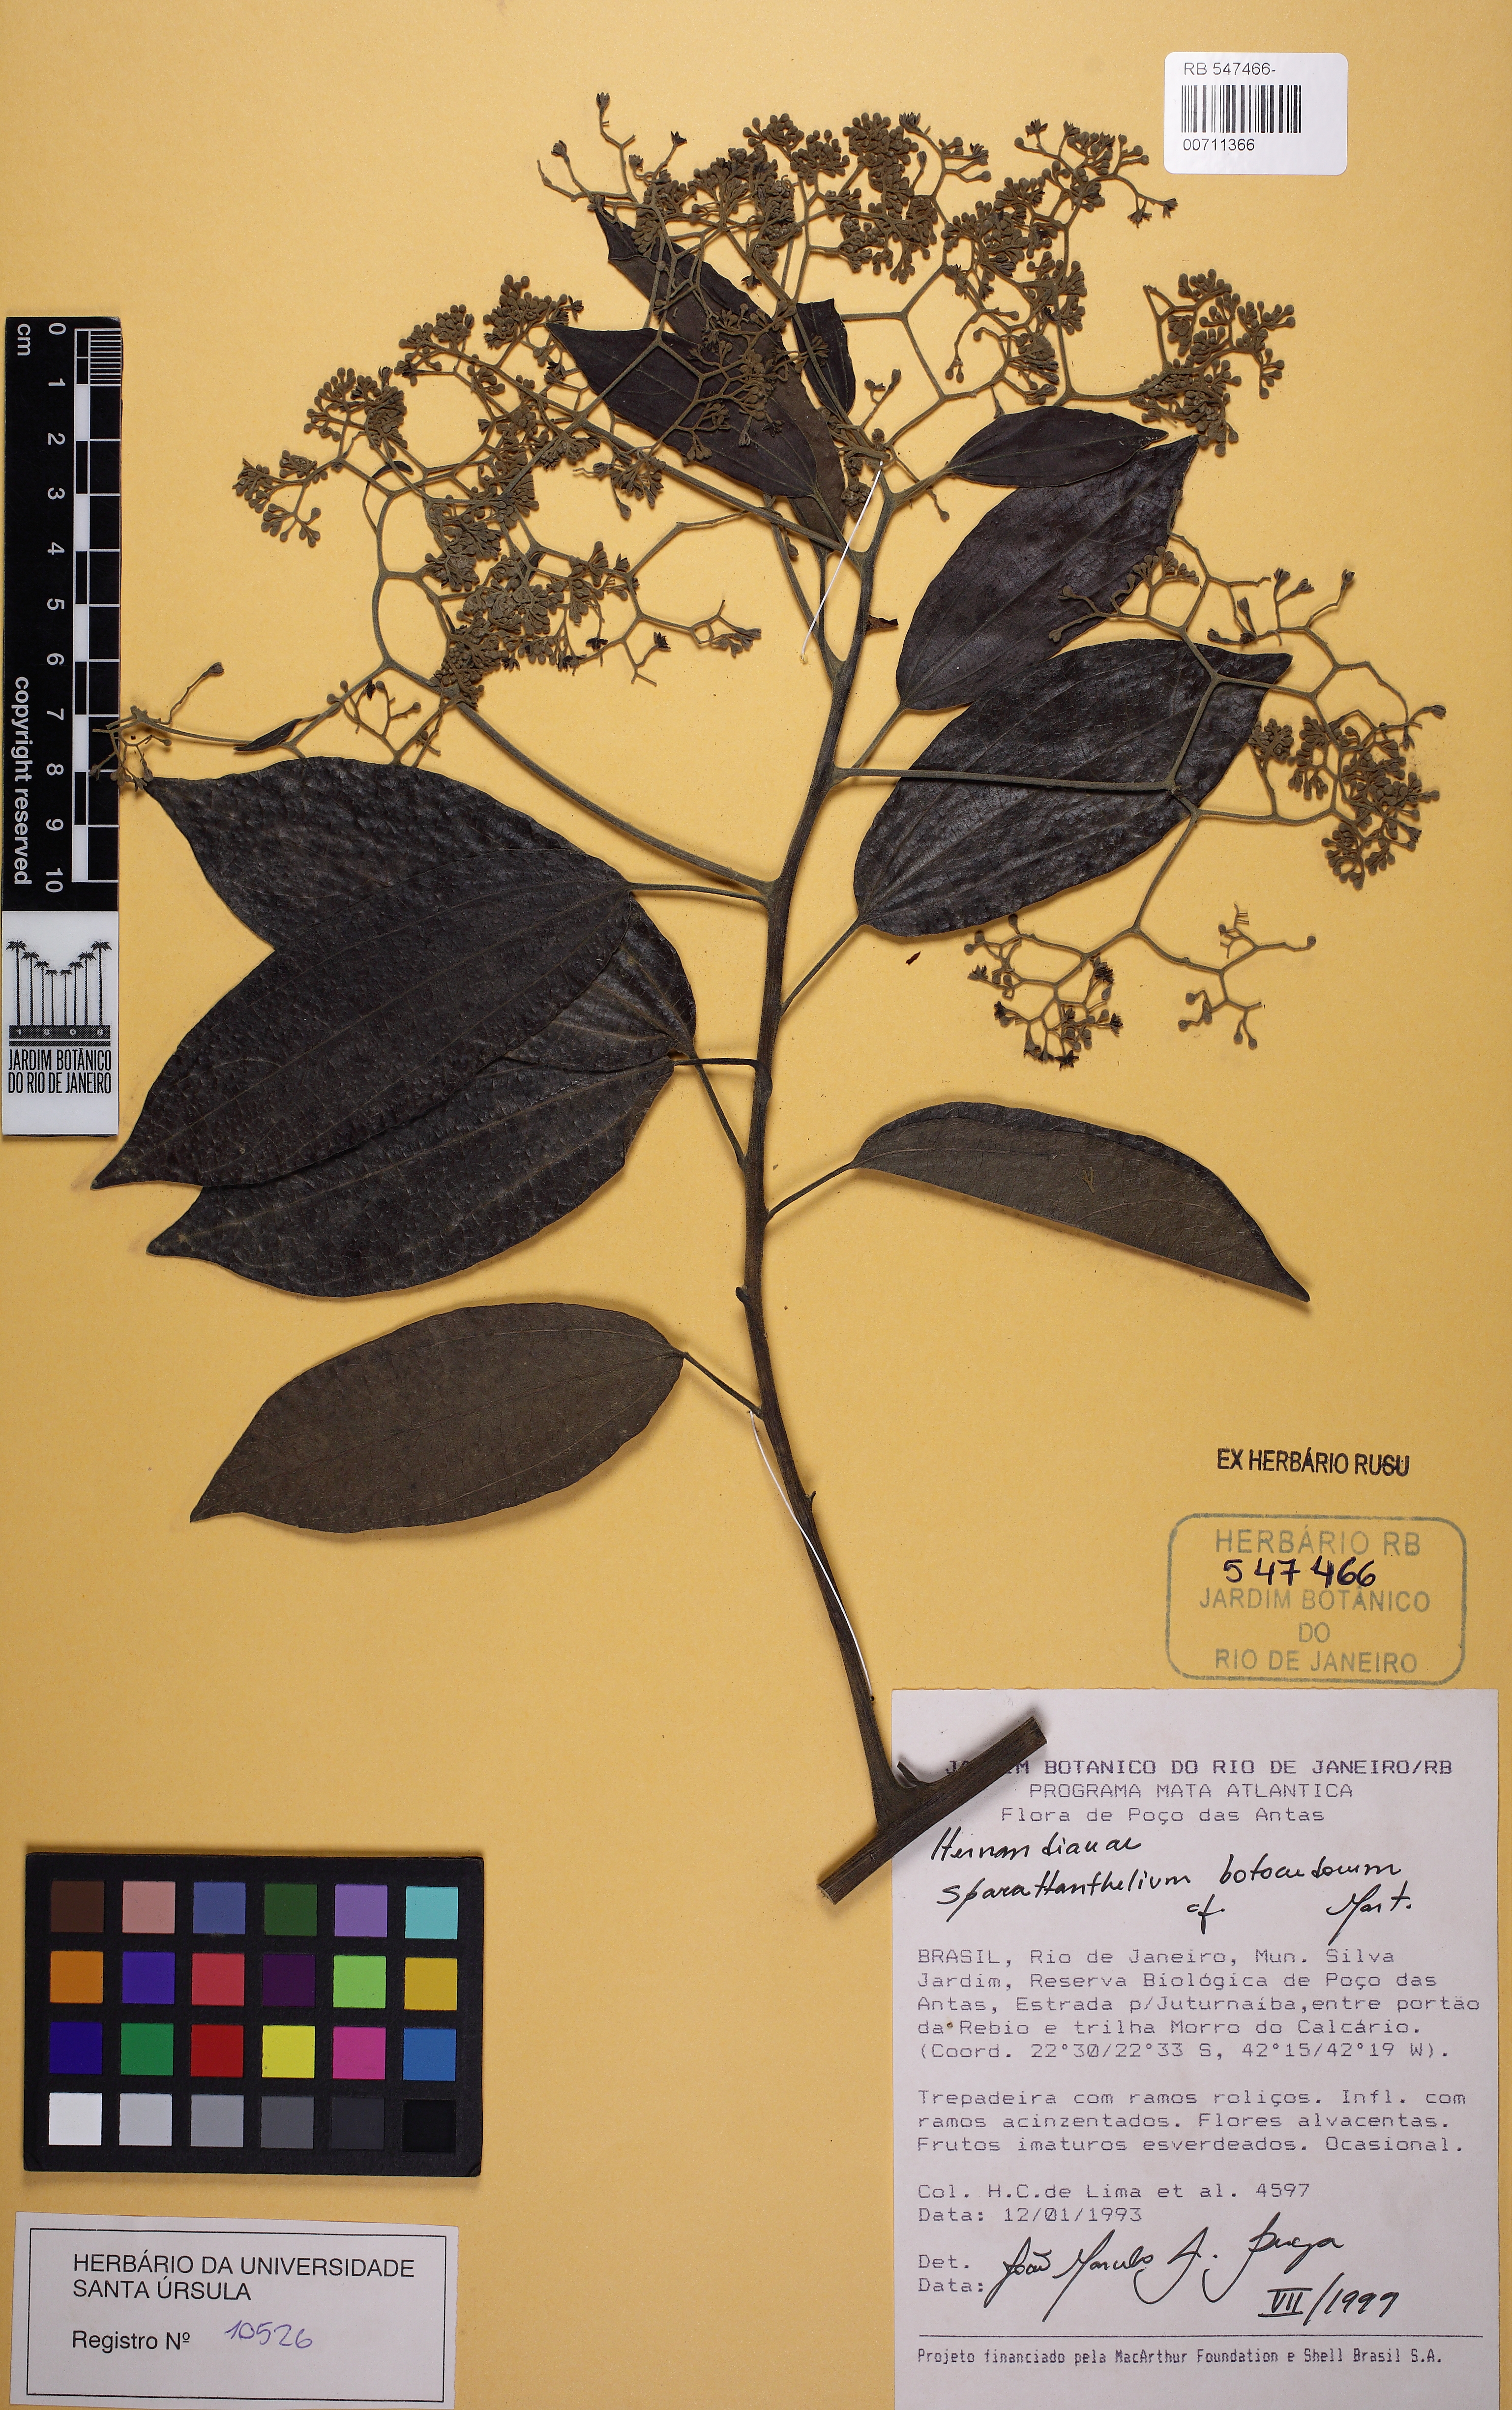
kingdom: Plantae
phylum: Tracheophyta
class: Magnoliopsida
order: Laurales
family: Hernandiaceae
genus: Sparattanthelium
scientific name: Sparattanthelium tupiniquinorum
